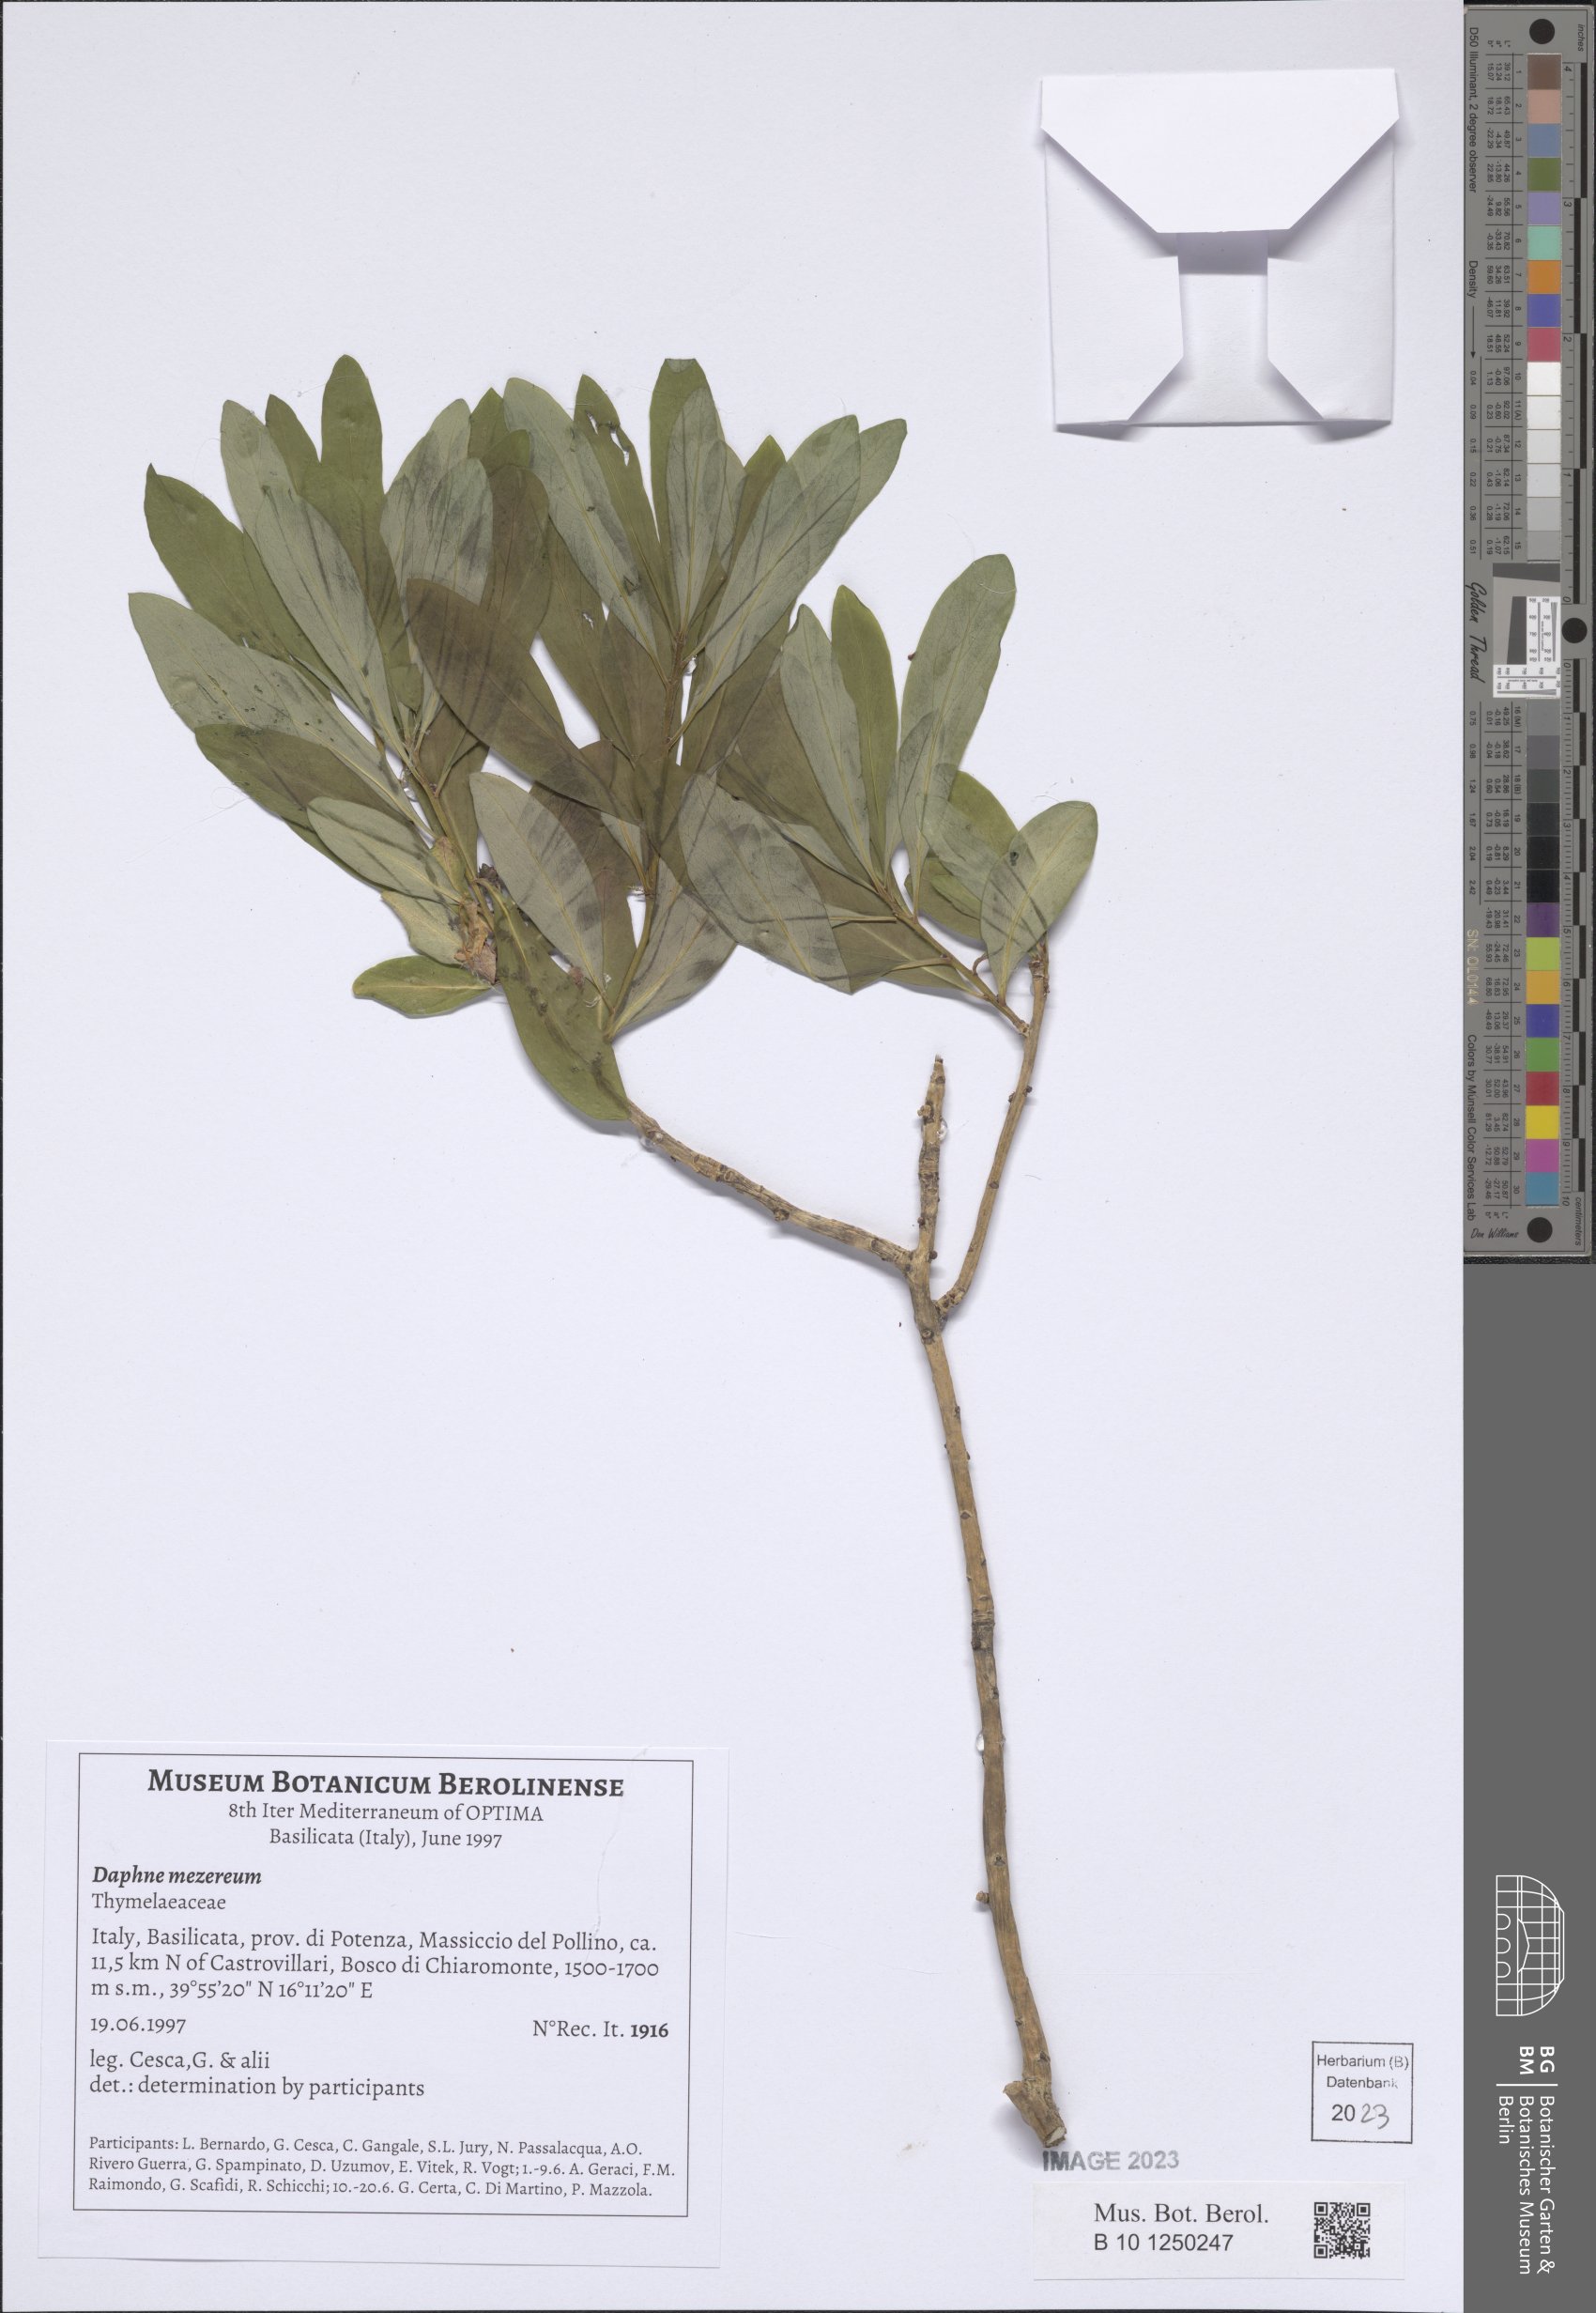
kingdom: Plantae
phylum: Tracheophyta
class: Magnoliopsida
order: Malvales
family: Thymelaeaceae
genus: Daphne
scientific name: Daphne mezereum
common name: Mezereon
